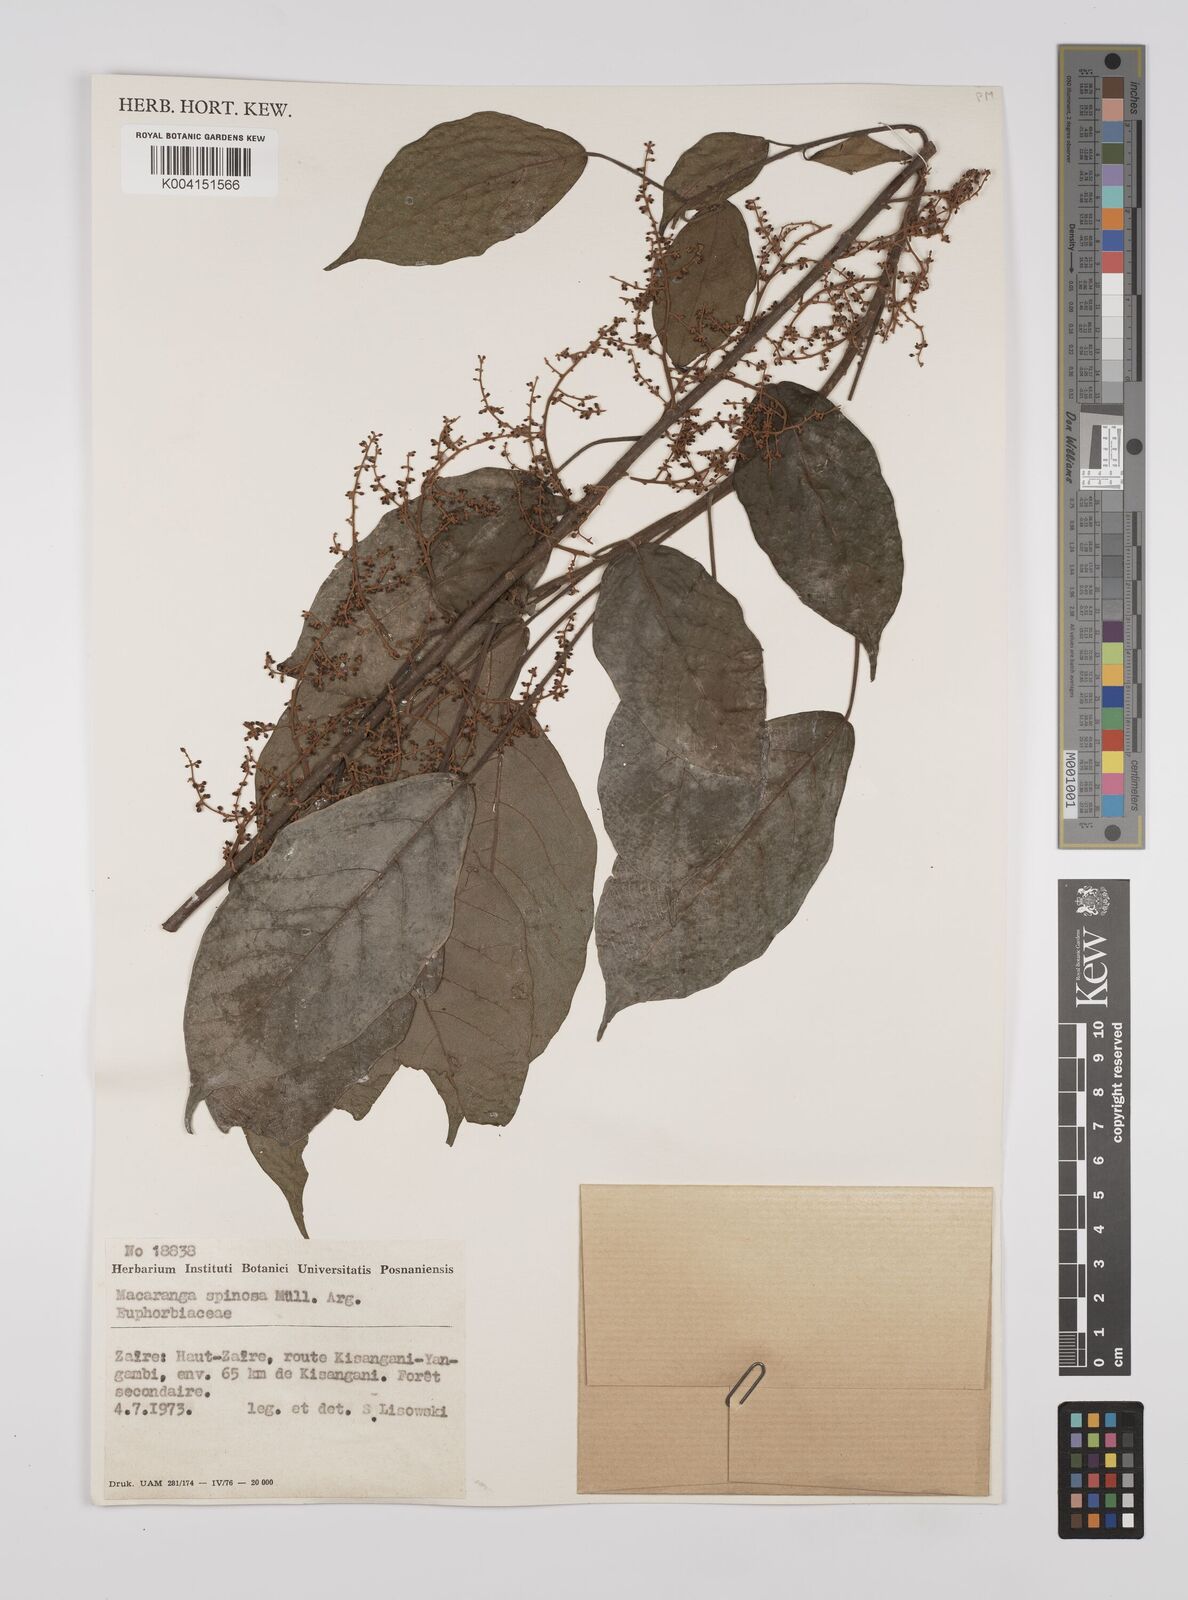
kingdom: Plantae
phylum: Tracheophyta
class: Magnoliopsida
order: Malpighiales
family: Euphorbiaceae
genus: Macaranga
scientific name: Macaranga spinosa
